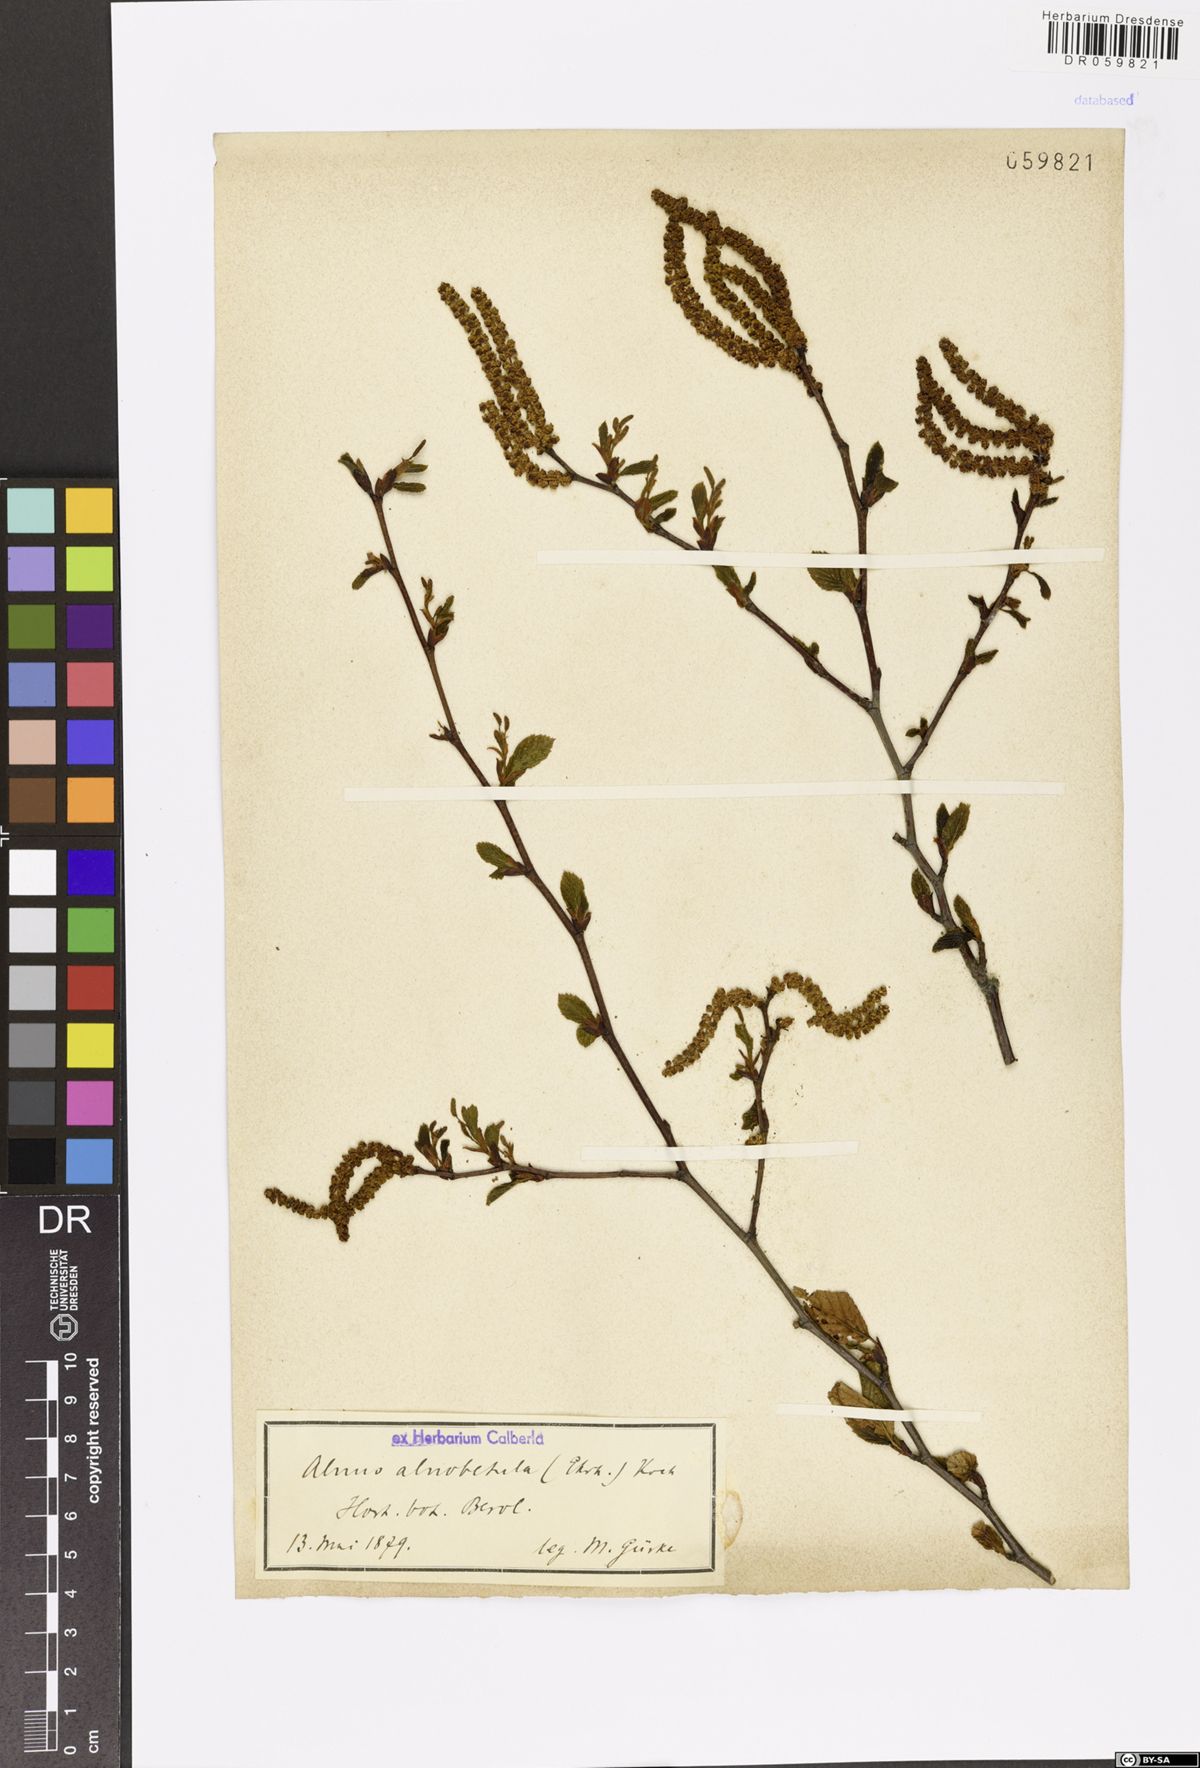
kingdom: Plantae
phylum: Tracheophyta
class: Magnoliopsida
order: Fagales
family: Betulaceae
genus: Alnus
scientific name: Alnus alnobetula
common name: Green alder
